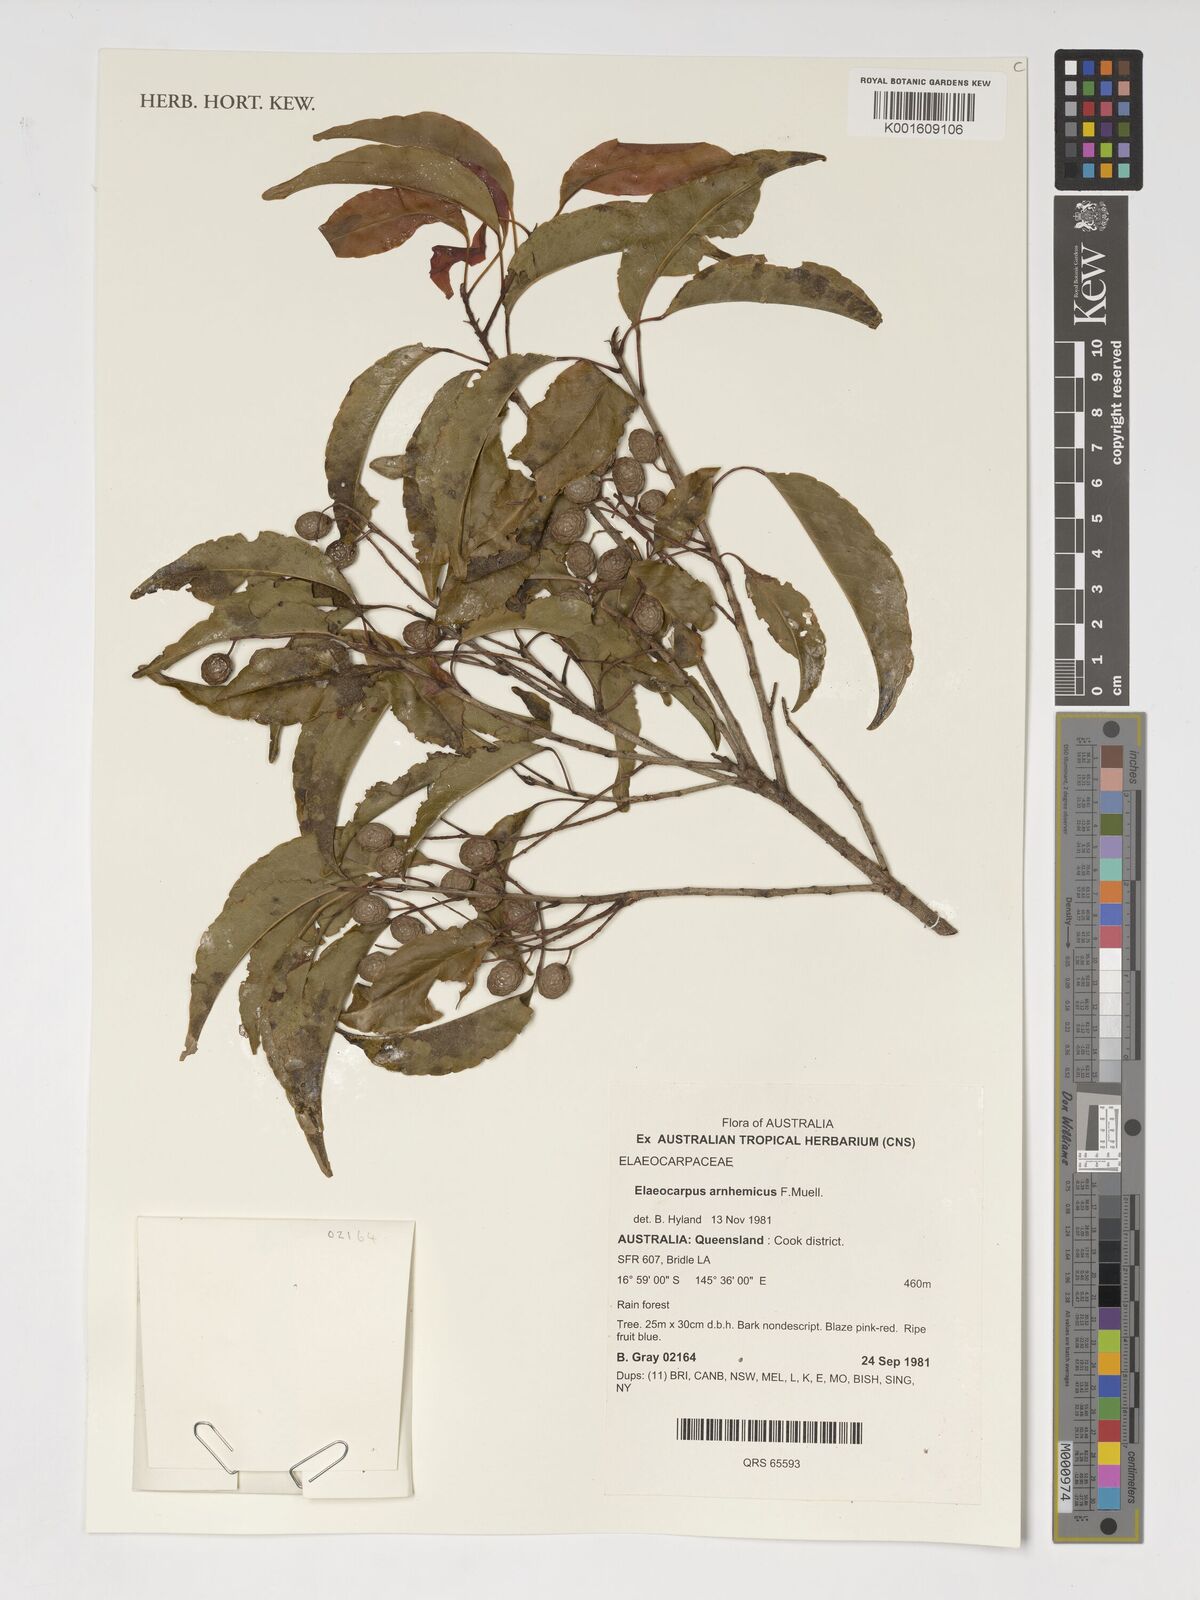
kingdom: Plantae
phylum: Tracheophyta
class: Magnoliopsida
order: Oxalidales
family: Elaeocarpaceae
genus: Elaeocarpus
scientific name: Elaeocarpus arnhemicus
